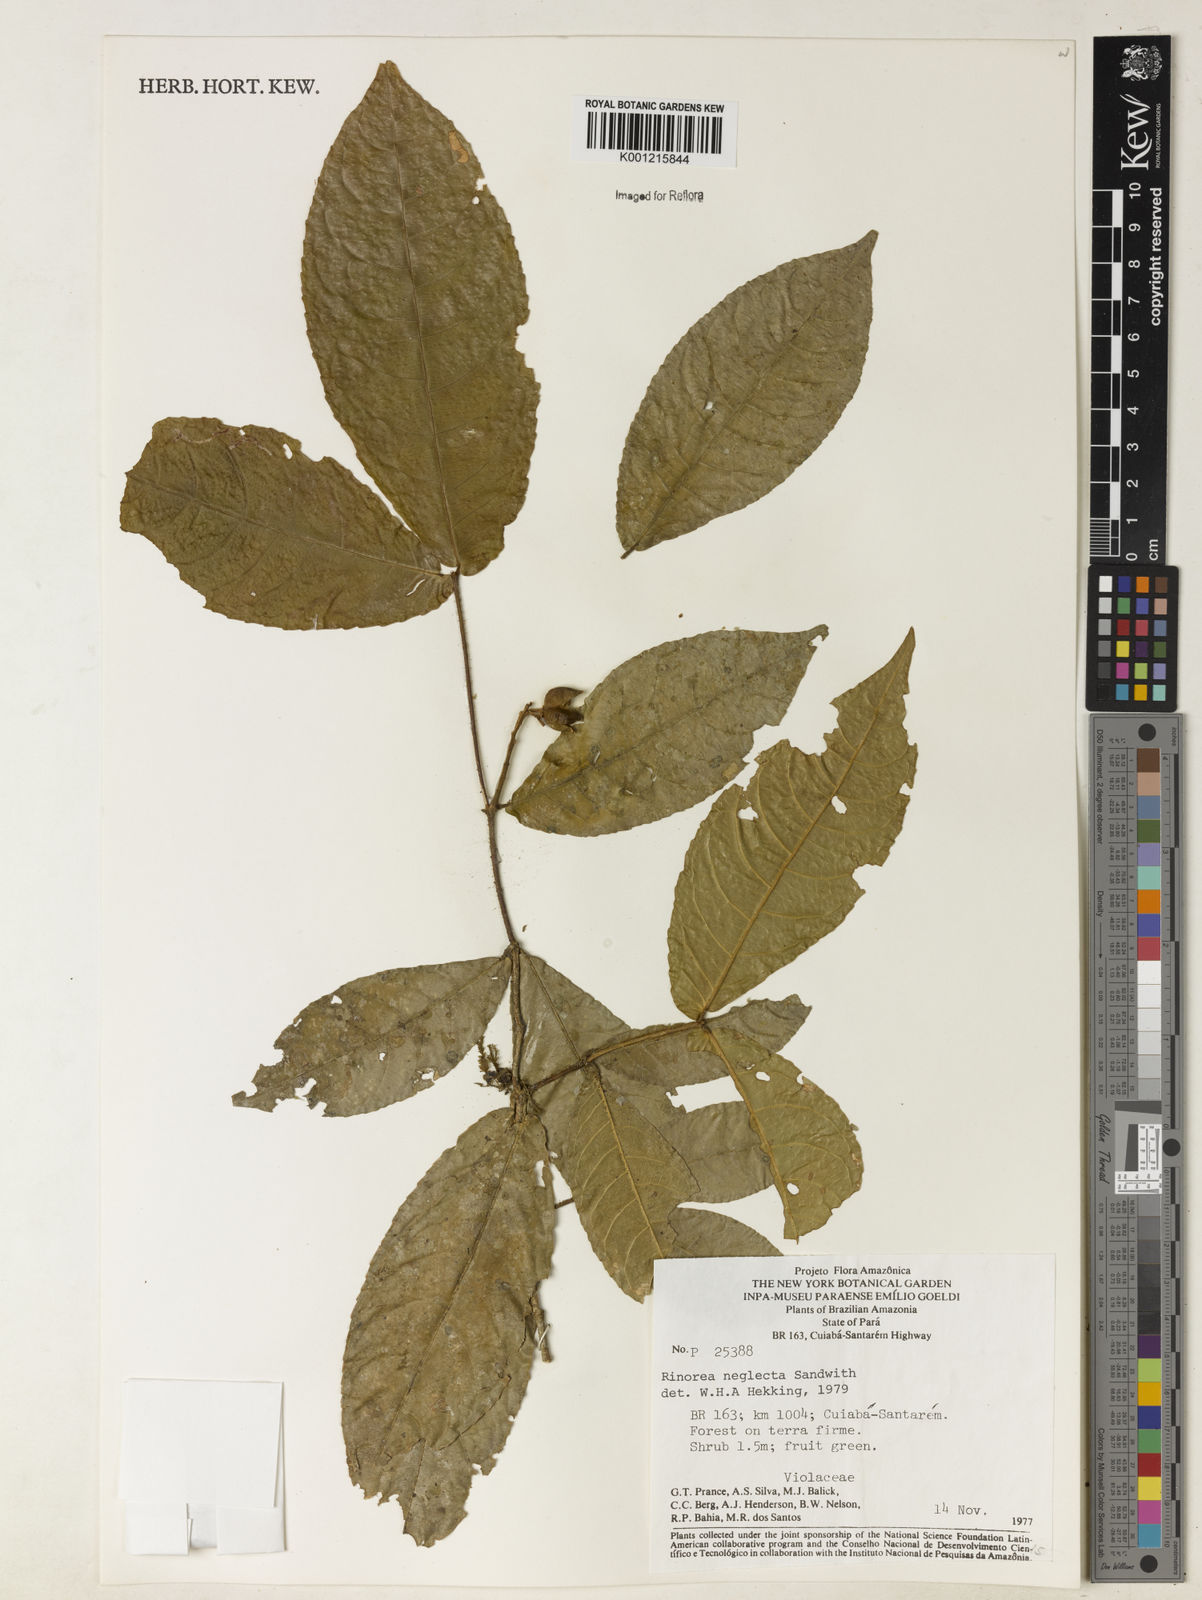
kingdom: Plantae
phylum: Tracheophyta
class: Magnoliopsida
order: Malpighiales
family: Violaceae
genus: Rinorea
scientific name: Rinorea neglecta
